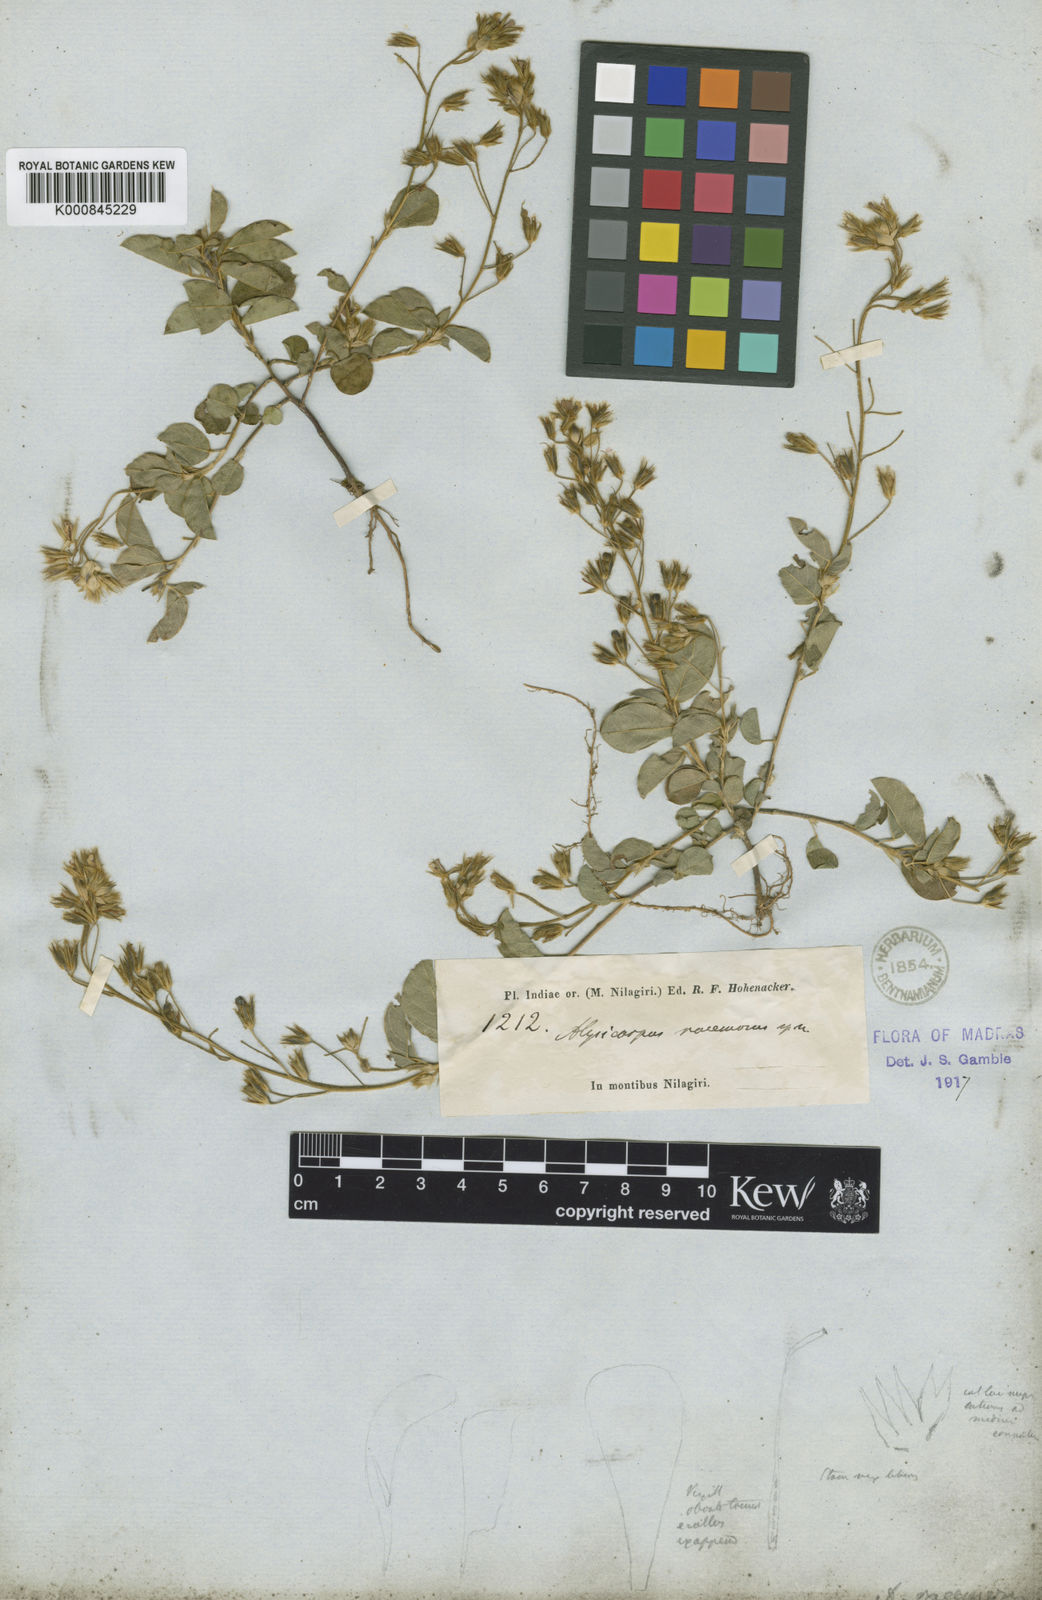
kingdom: Plantae
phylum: Tracheophyta
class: Magnoliopsida
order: Fabales
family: Fabaceae
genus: Alysicarpus
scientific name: Alysicarpus belgaumensis
